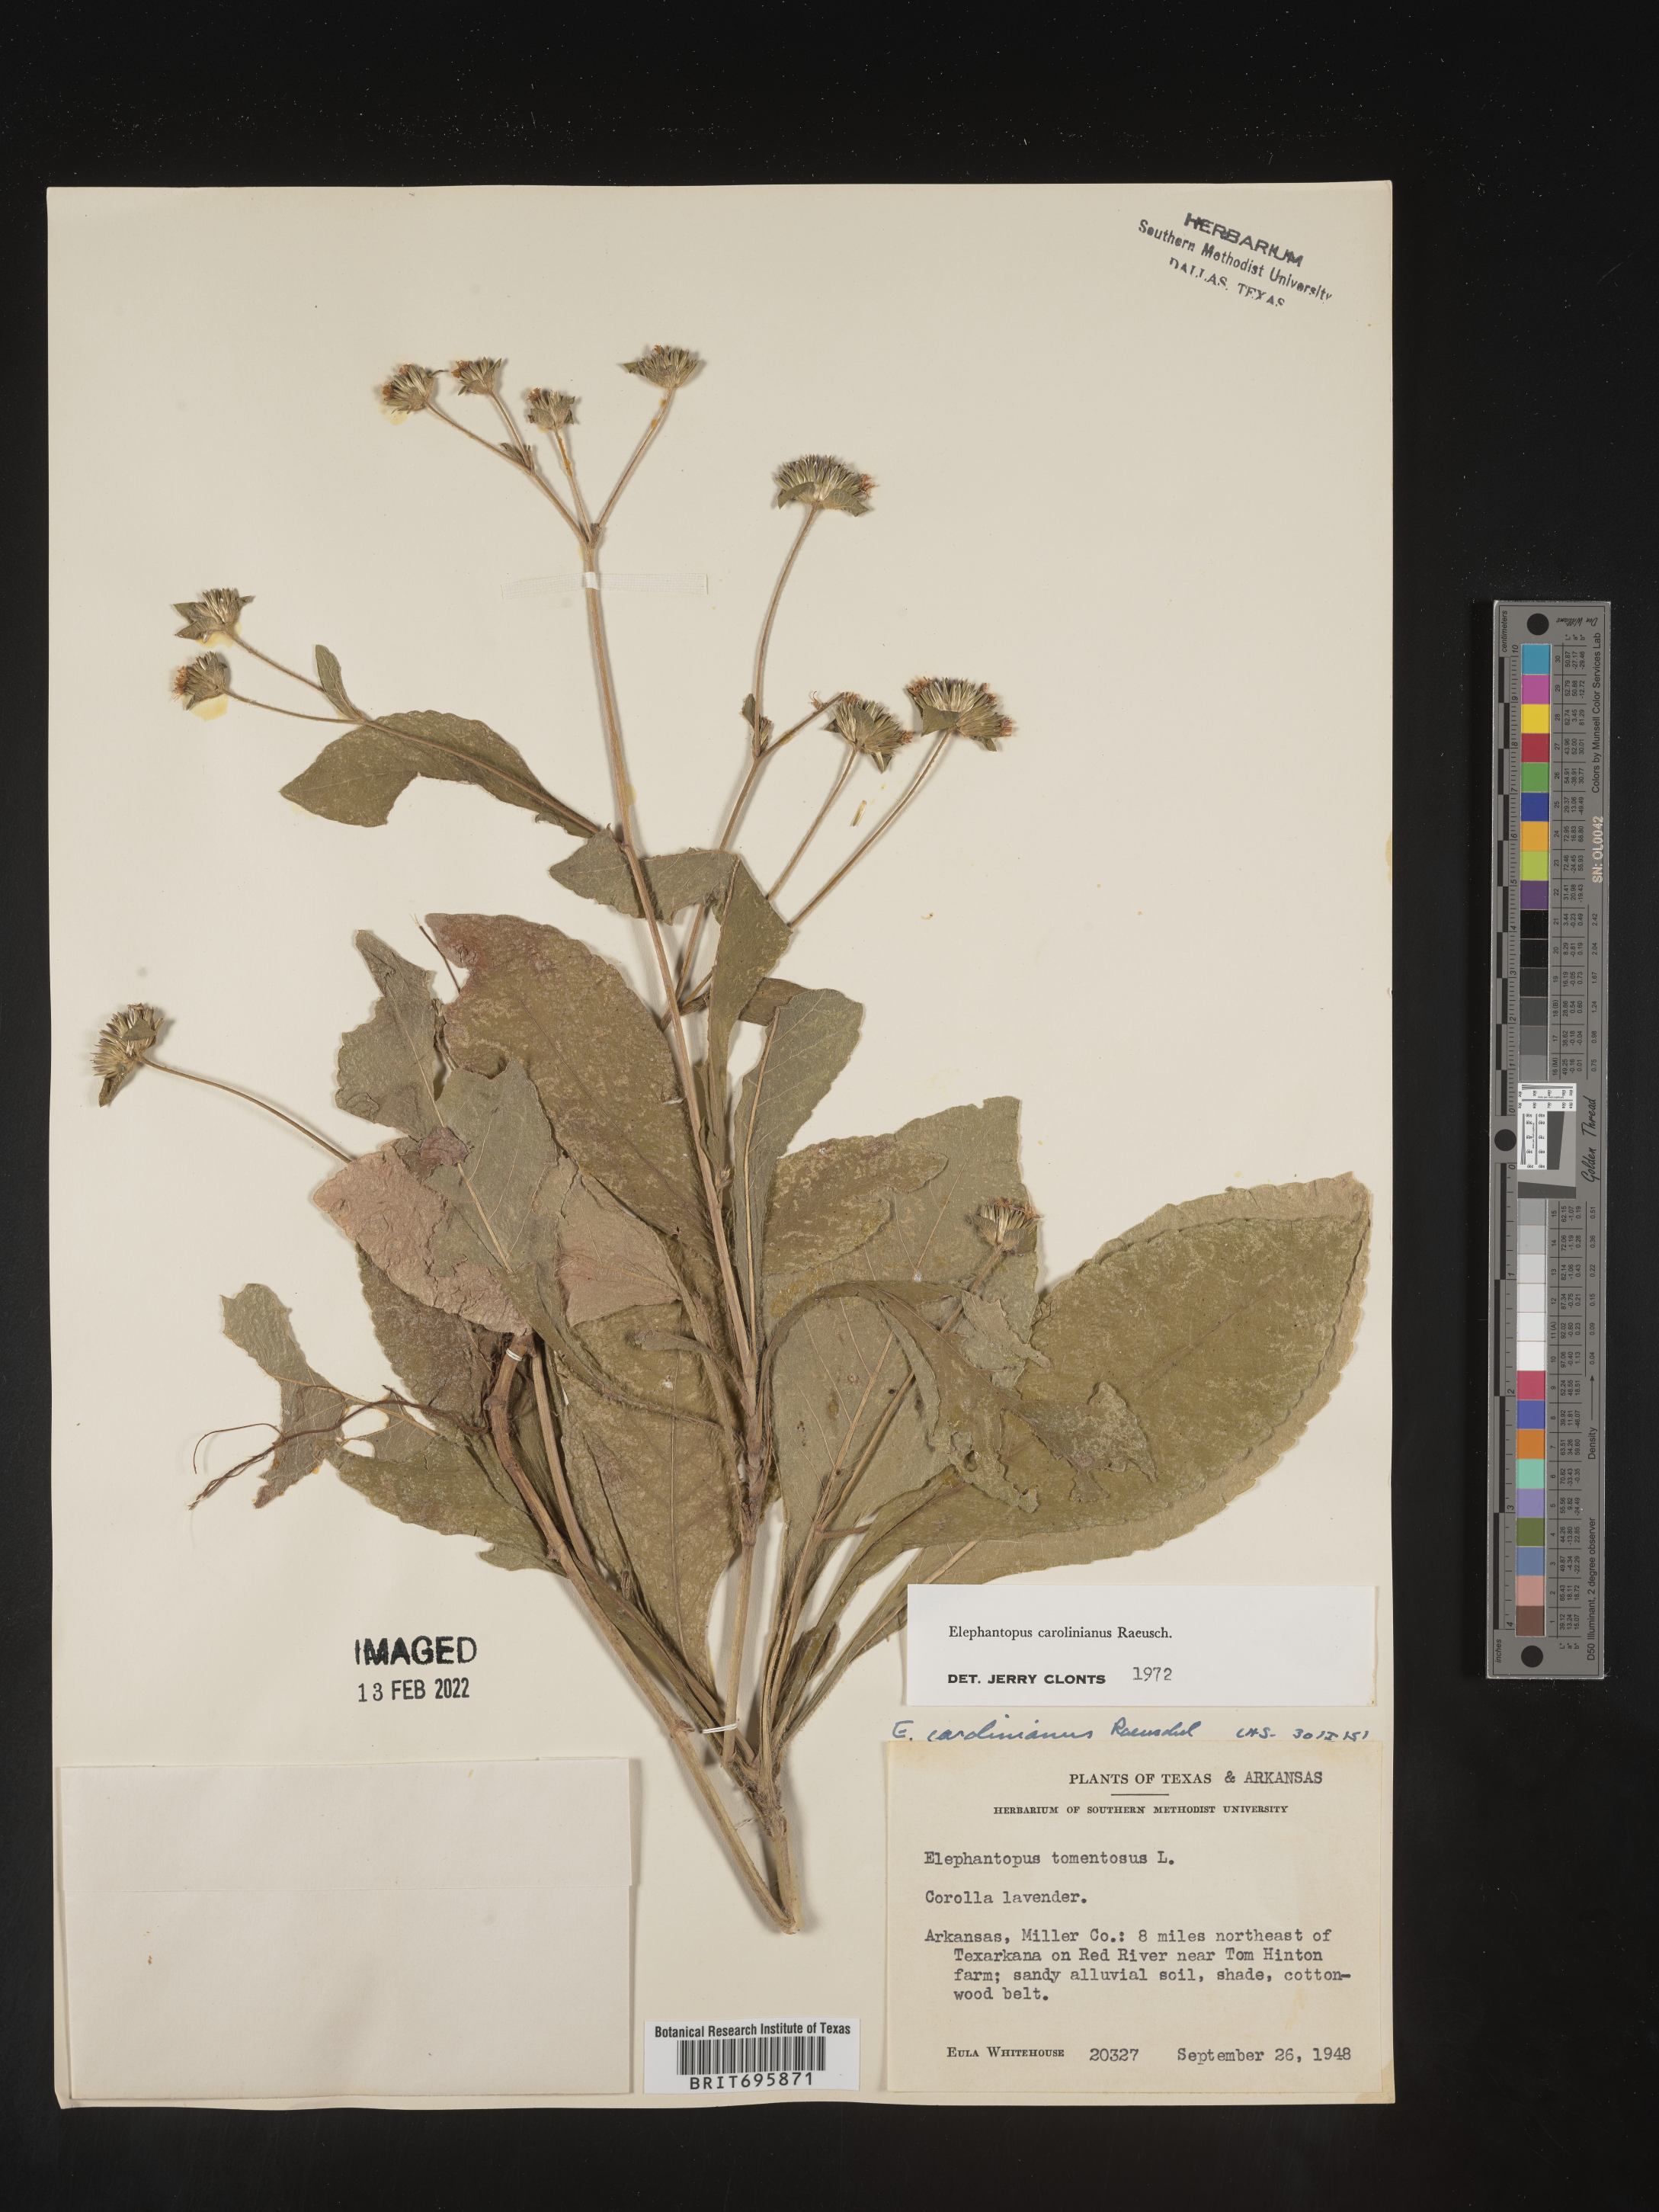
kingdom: Plantae
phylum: Tracheophyta
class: Magnoliopsida
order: Asterales
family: Asteraceae
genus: Elephantopus
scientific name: Elephantopus carolinianus
